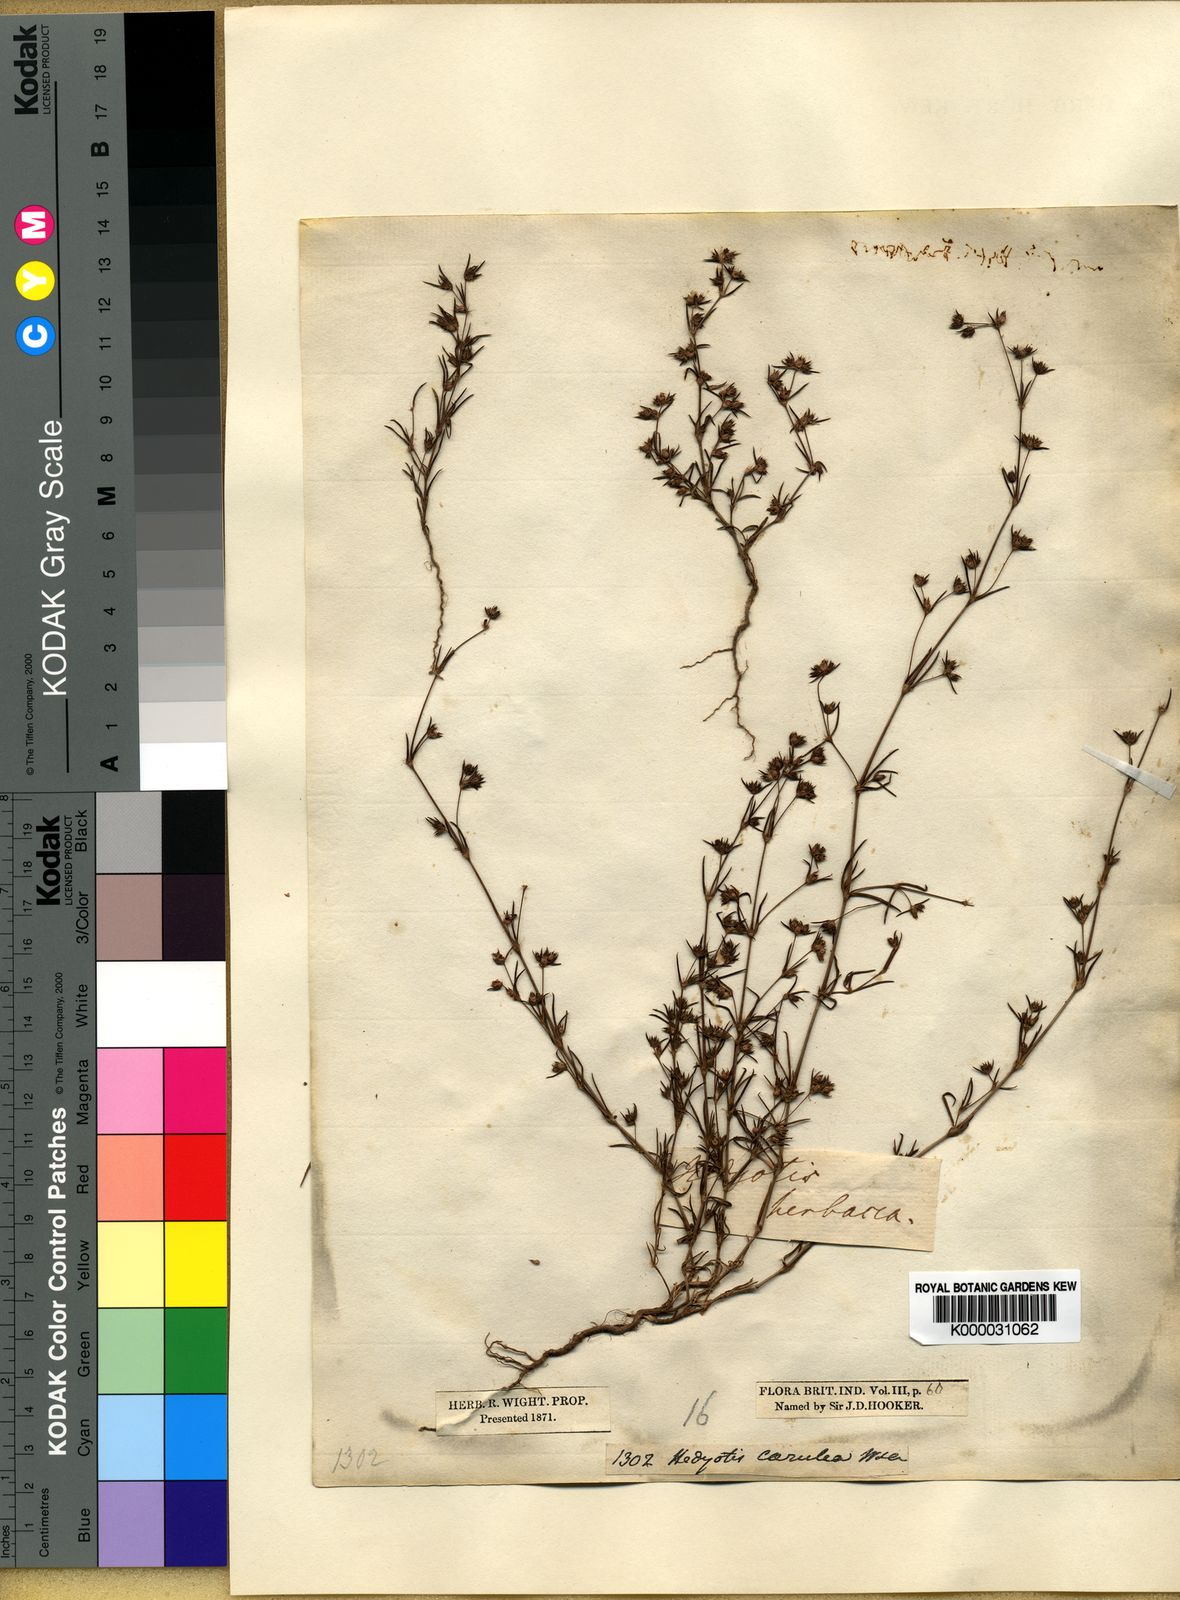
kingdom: Plantae
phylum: Tracheophyta
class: Magnoliopsida
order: Gentianales
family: Rubiaceae
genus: Hedyotis
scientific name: Hedyotis cyanantha
